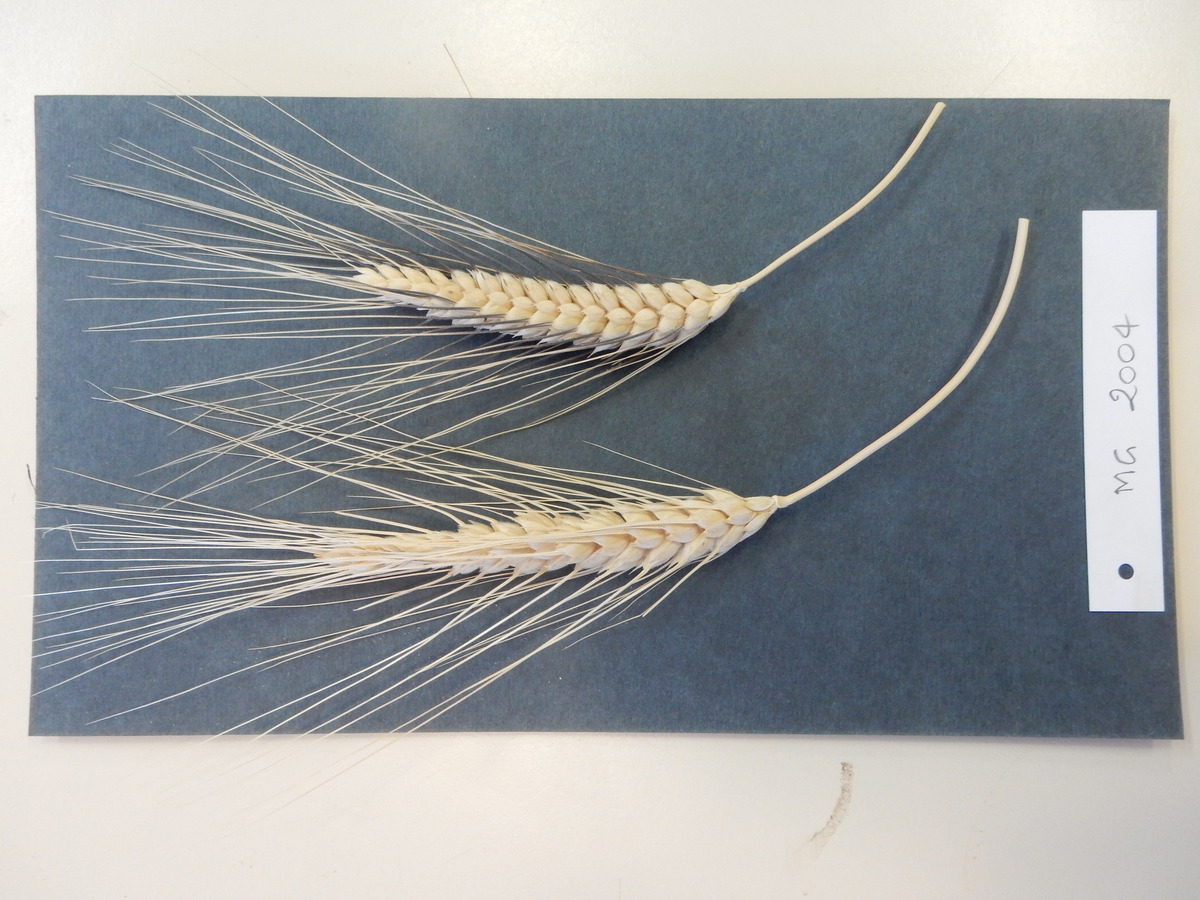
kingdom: Plantae
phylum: Tracheophyta
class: Liliopsida
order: Poales
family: Poaceae
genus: Triticum
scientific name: Triticum turgidum
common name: Wheat
